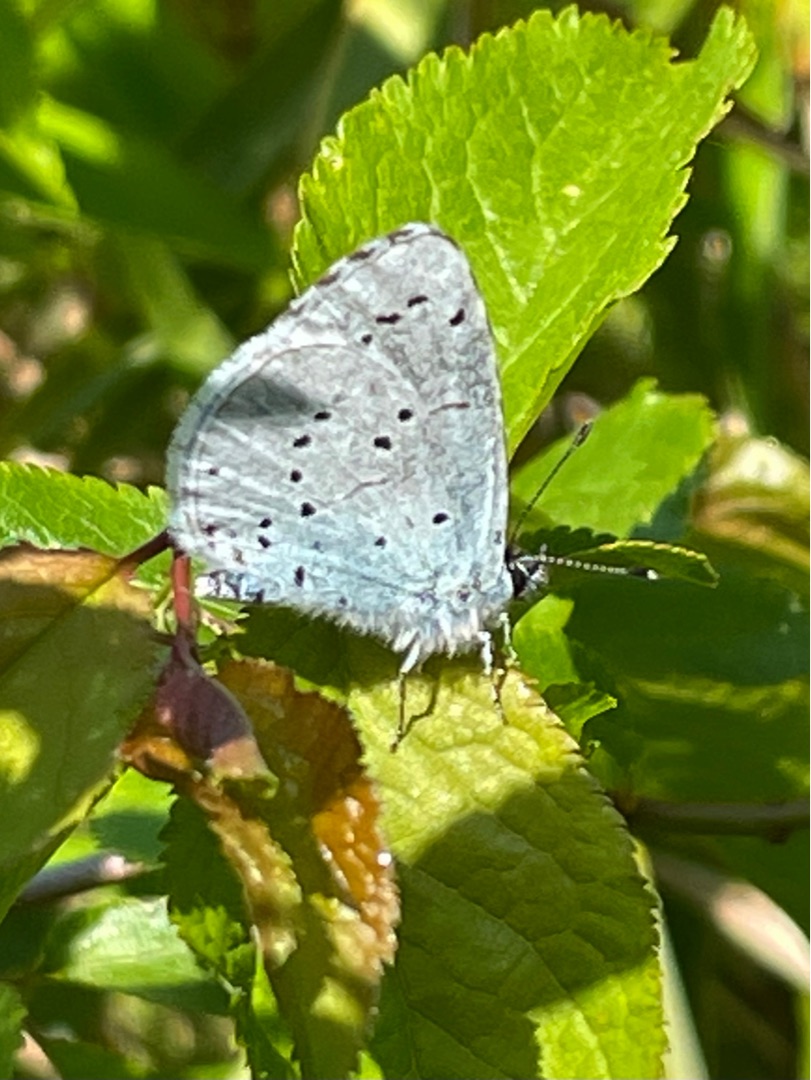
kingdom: Animalia
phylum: Arthropoda
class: Insecta
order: Lepidoptera
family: Lycaenidae
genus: Celastrina
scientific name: Celastrina argiolus
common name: Skovblåfugl
